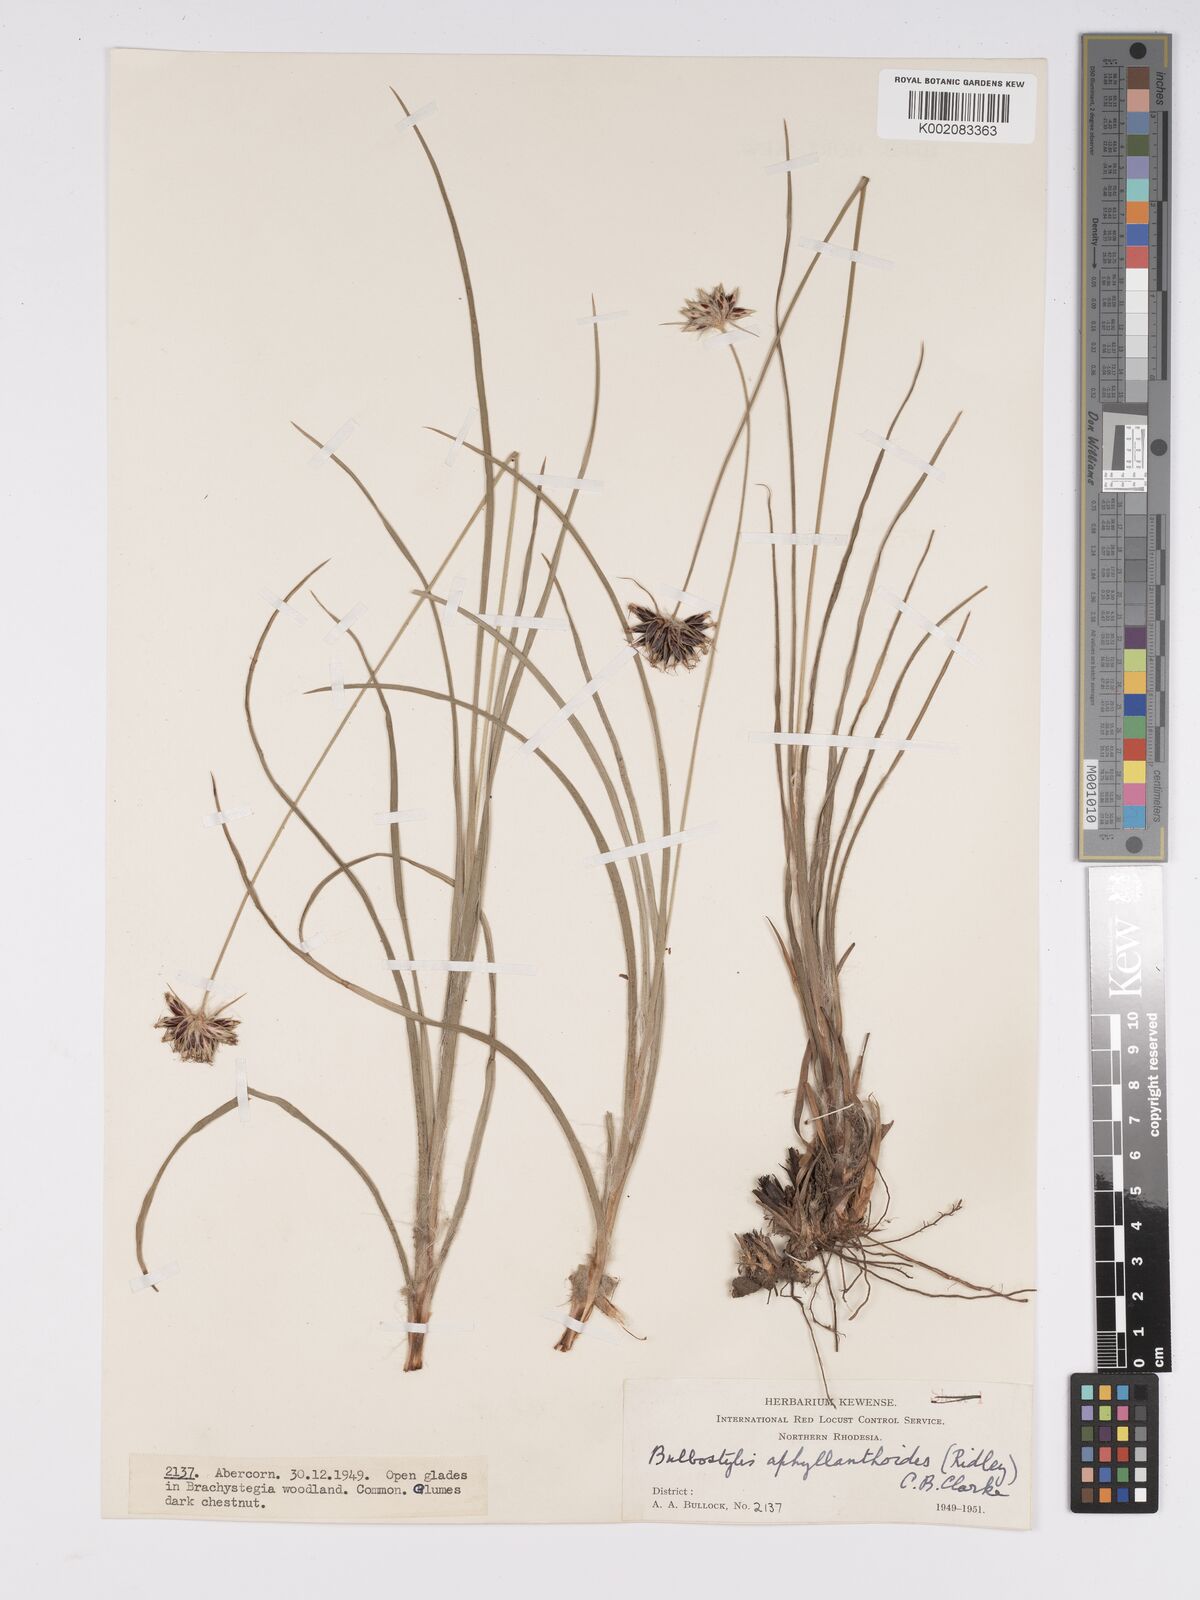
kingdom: Plantae
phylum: Tracheophyta
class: Liliopsida
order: Poales
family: Cyperaceae
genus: Bulbostylis
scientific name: Bulbostylis pilosa
